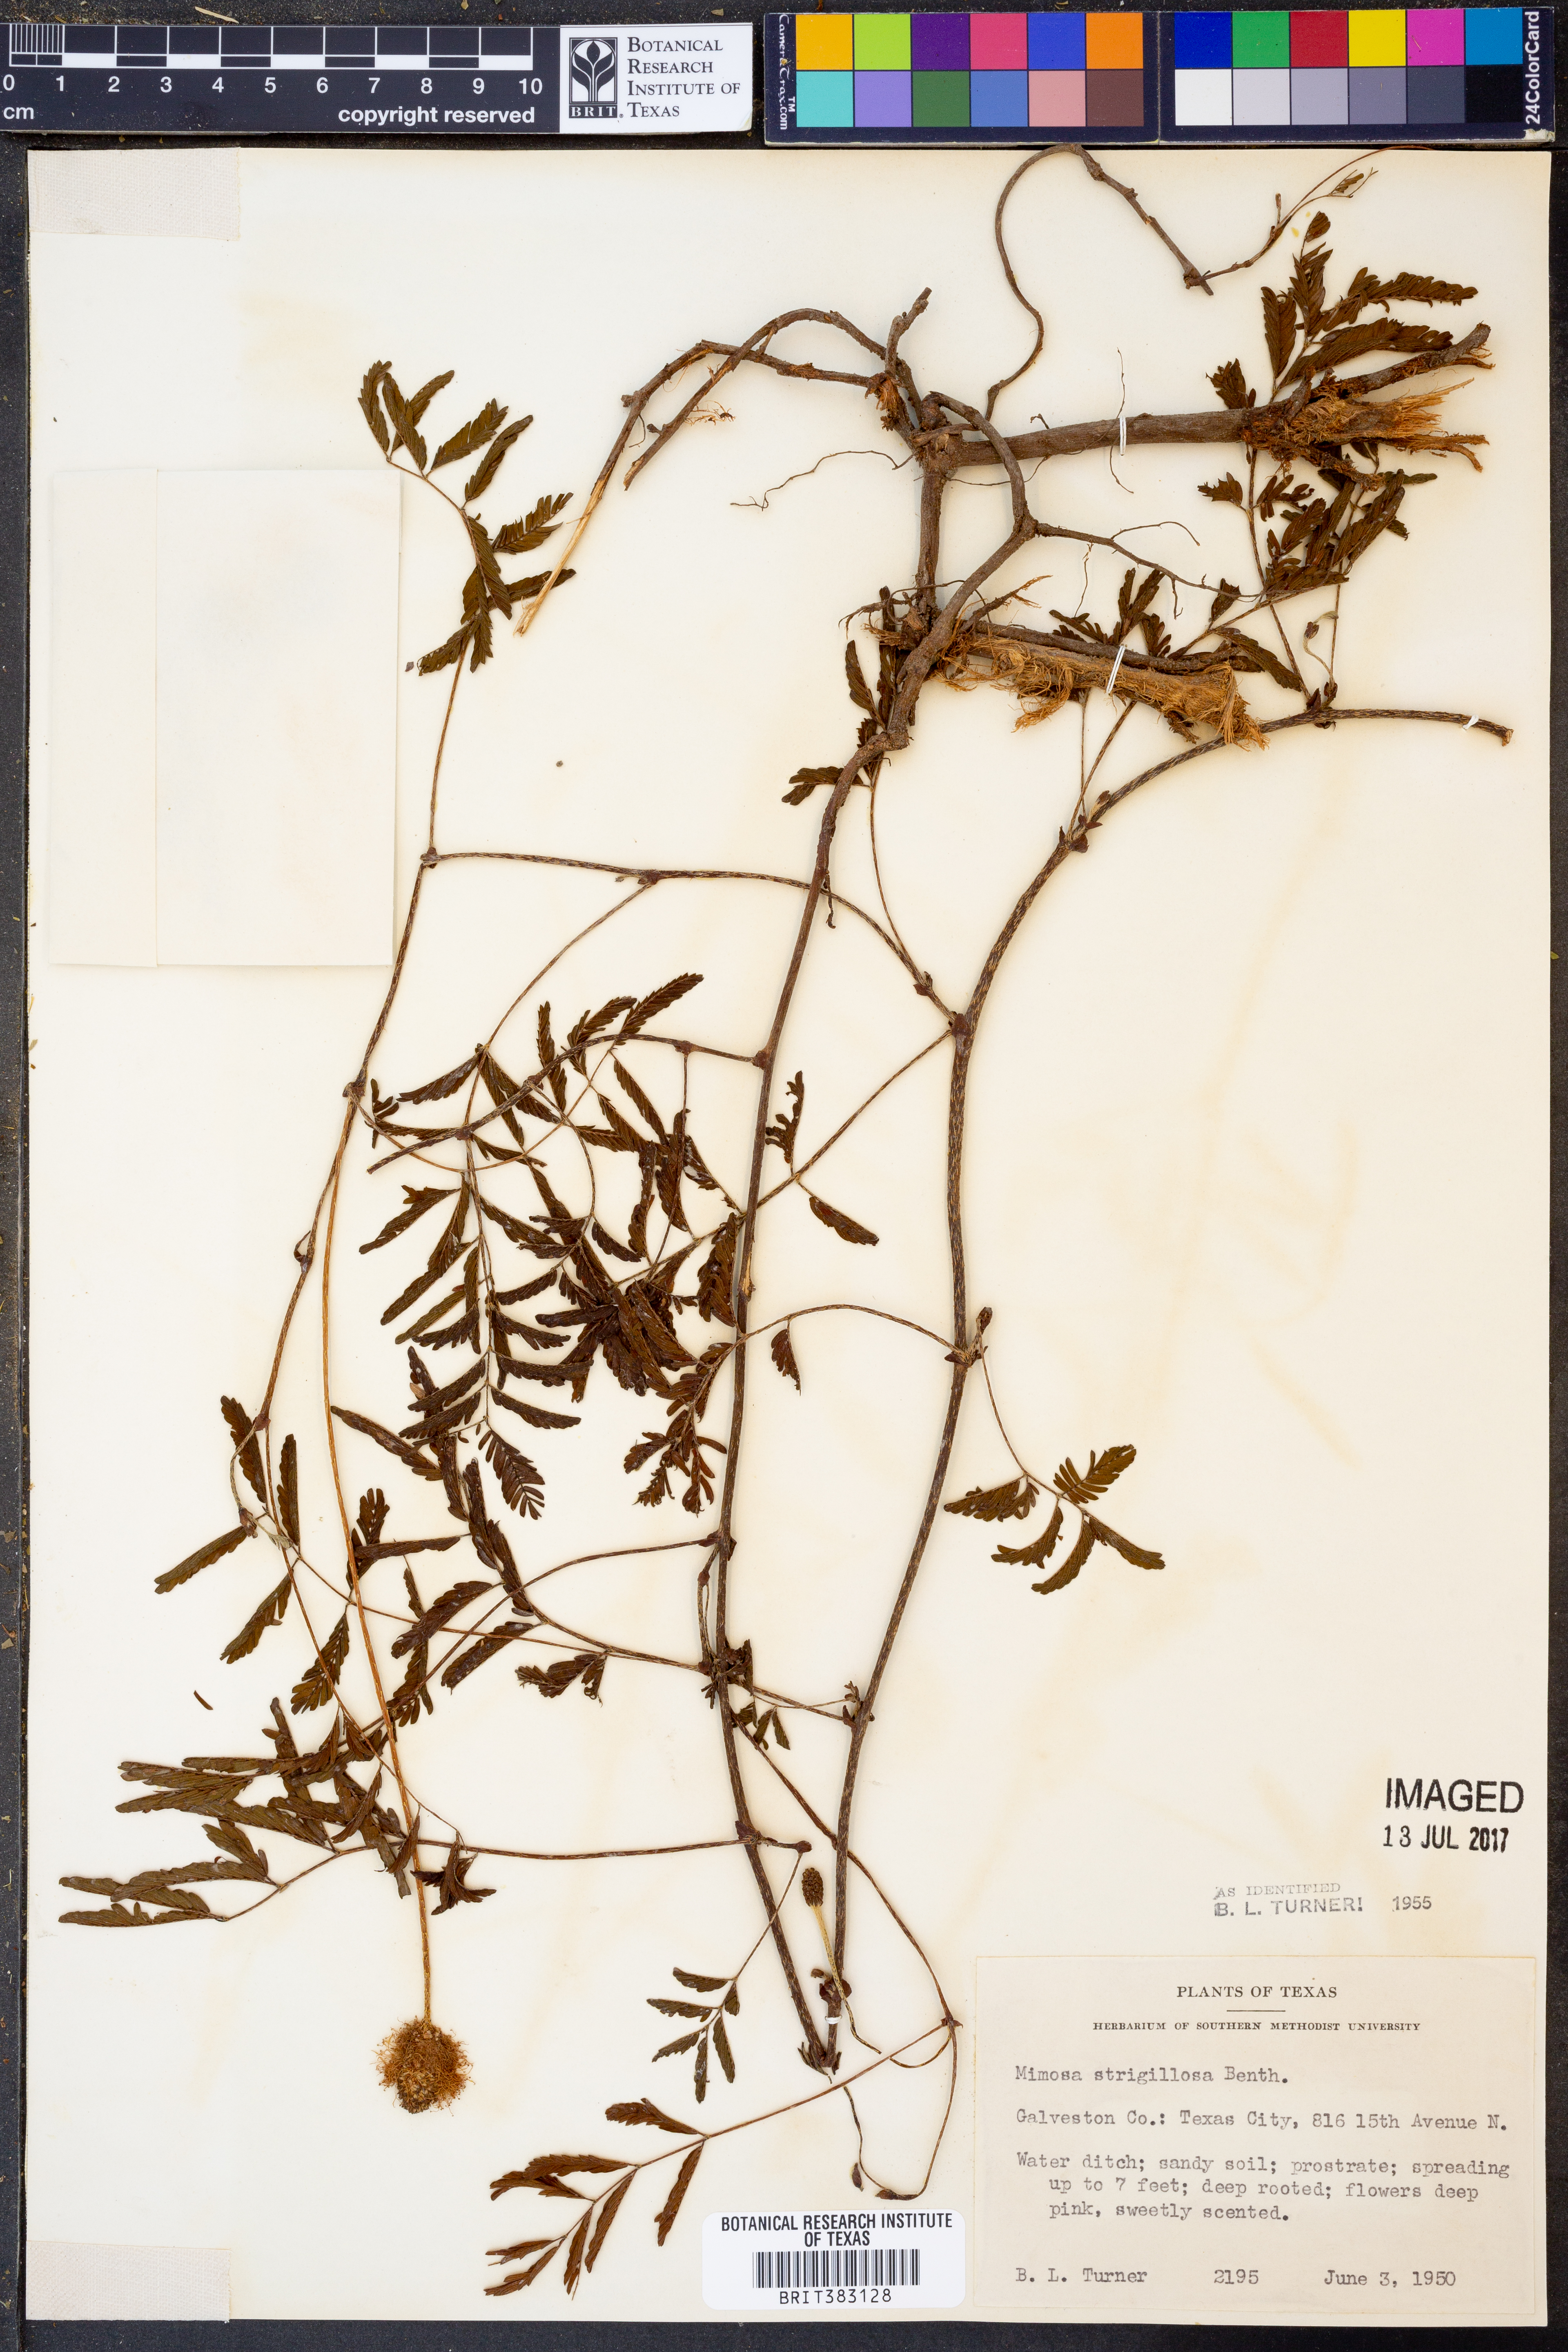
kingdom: Plantae
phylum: Tracheophyta
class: Magnoliopsida
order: Fabales
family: Fabaceae
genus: Mimosa
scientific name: Mimosa strigillosa
